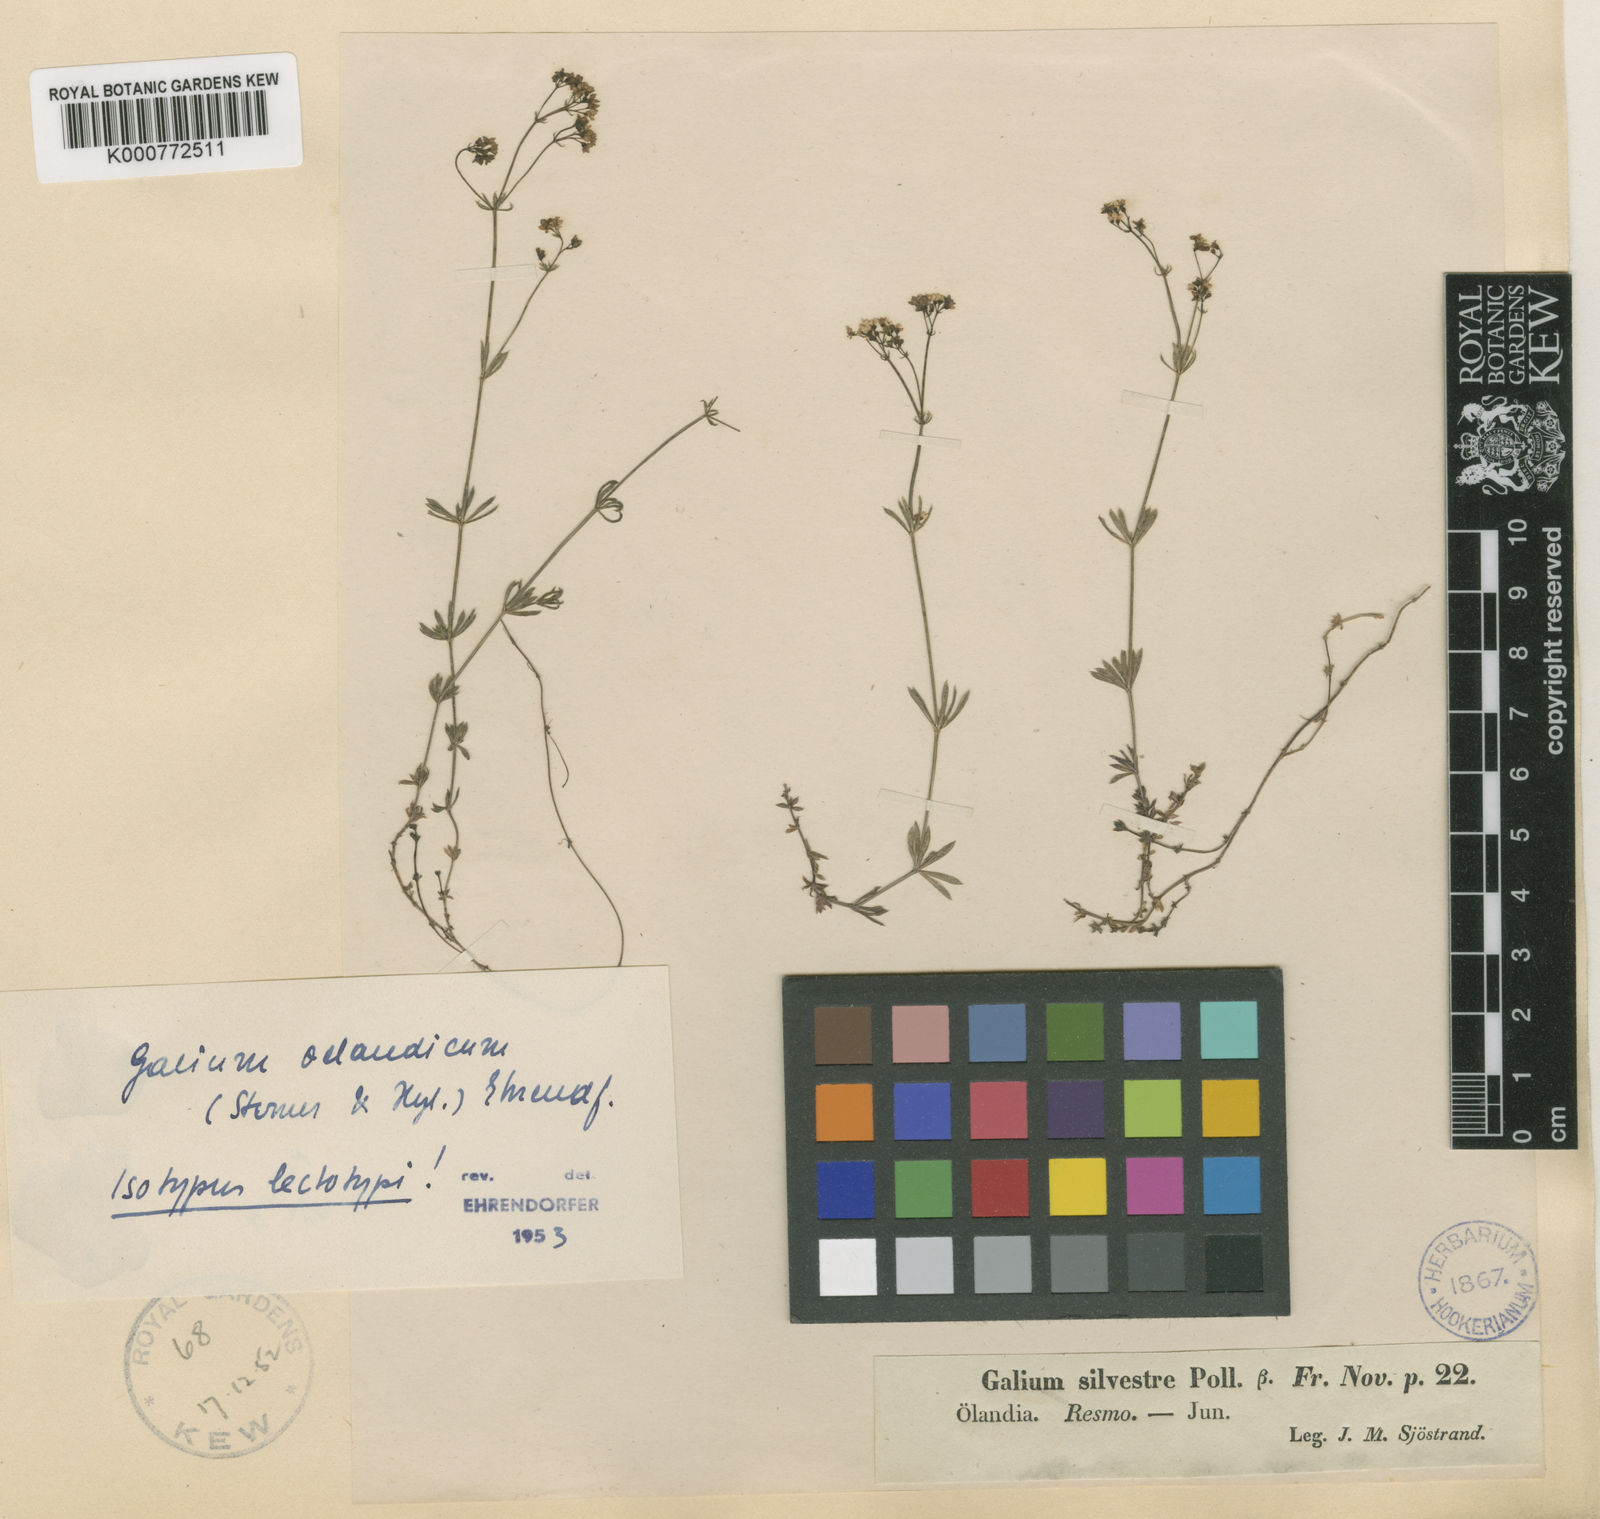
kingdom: Plantae
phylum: Tracheophyta
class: Magnoliopsida
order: Gentianales
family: Rubiaceae
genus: Galium
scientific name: Galium oelandicum
